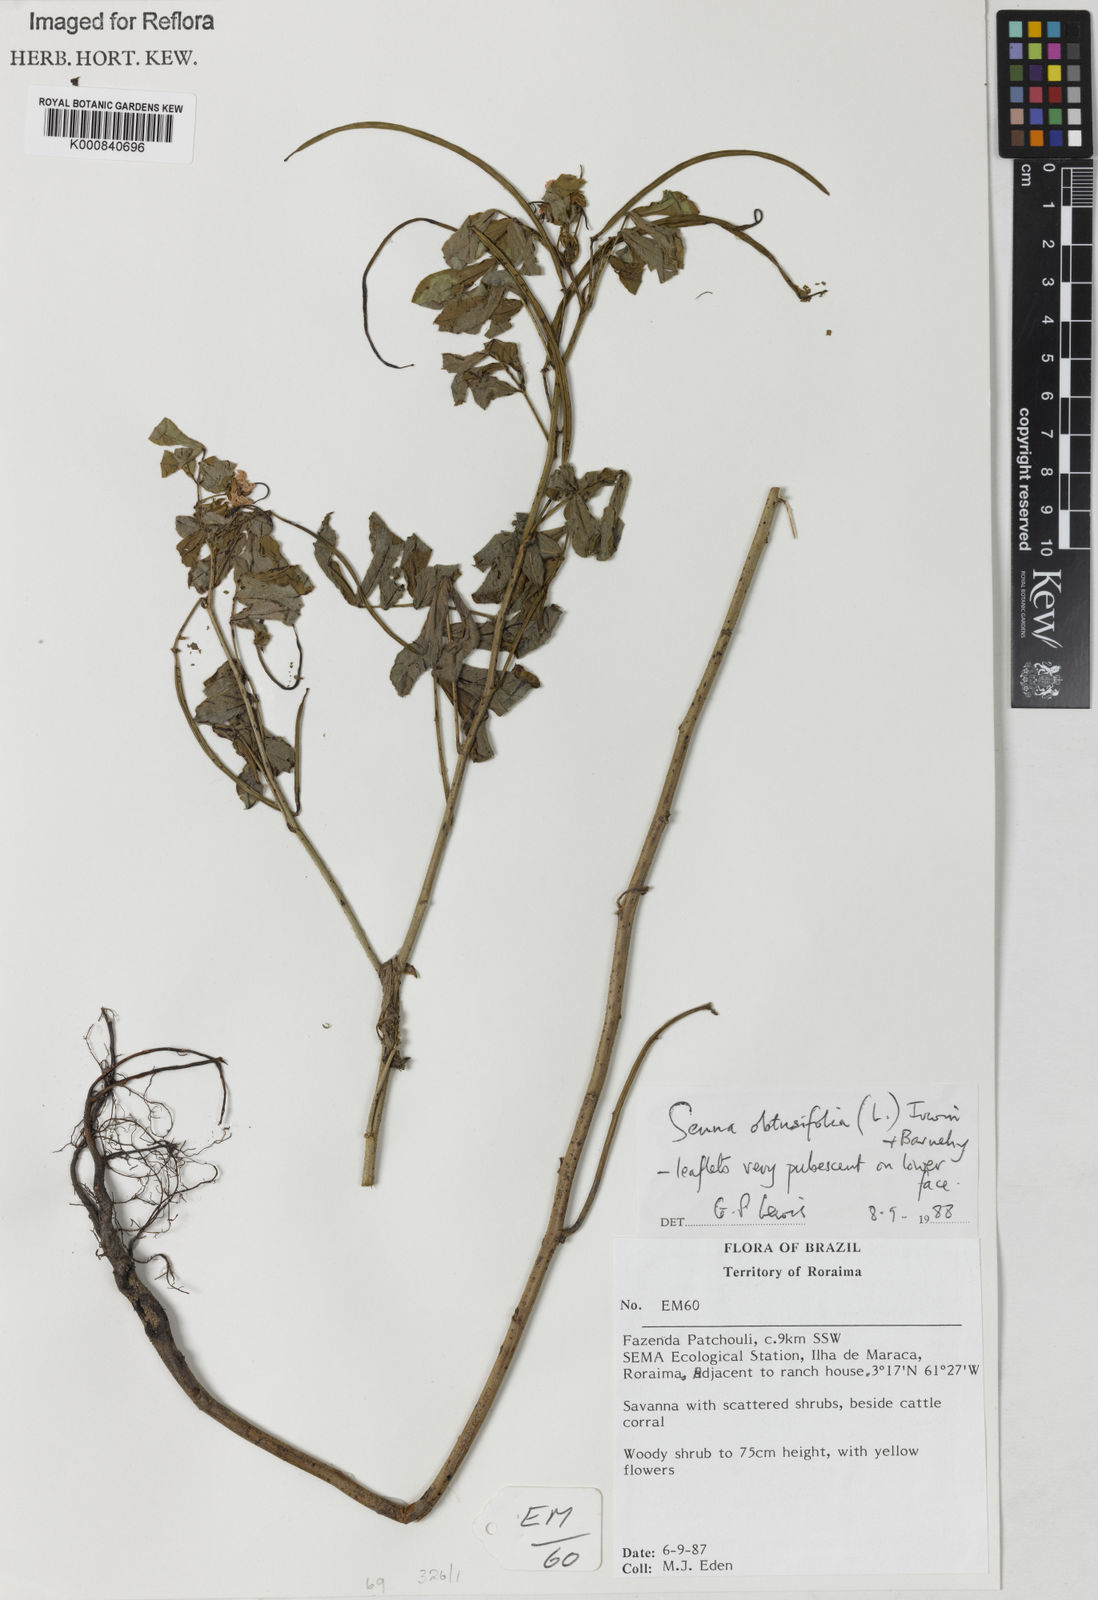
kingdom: Plantae
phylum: Tracheophyta
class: Magnoliopsida
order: Fabales
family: Fabaceae
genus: Senna
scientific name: Senna obtusifolia
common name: Java-bean
